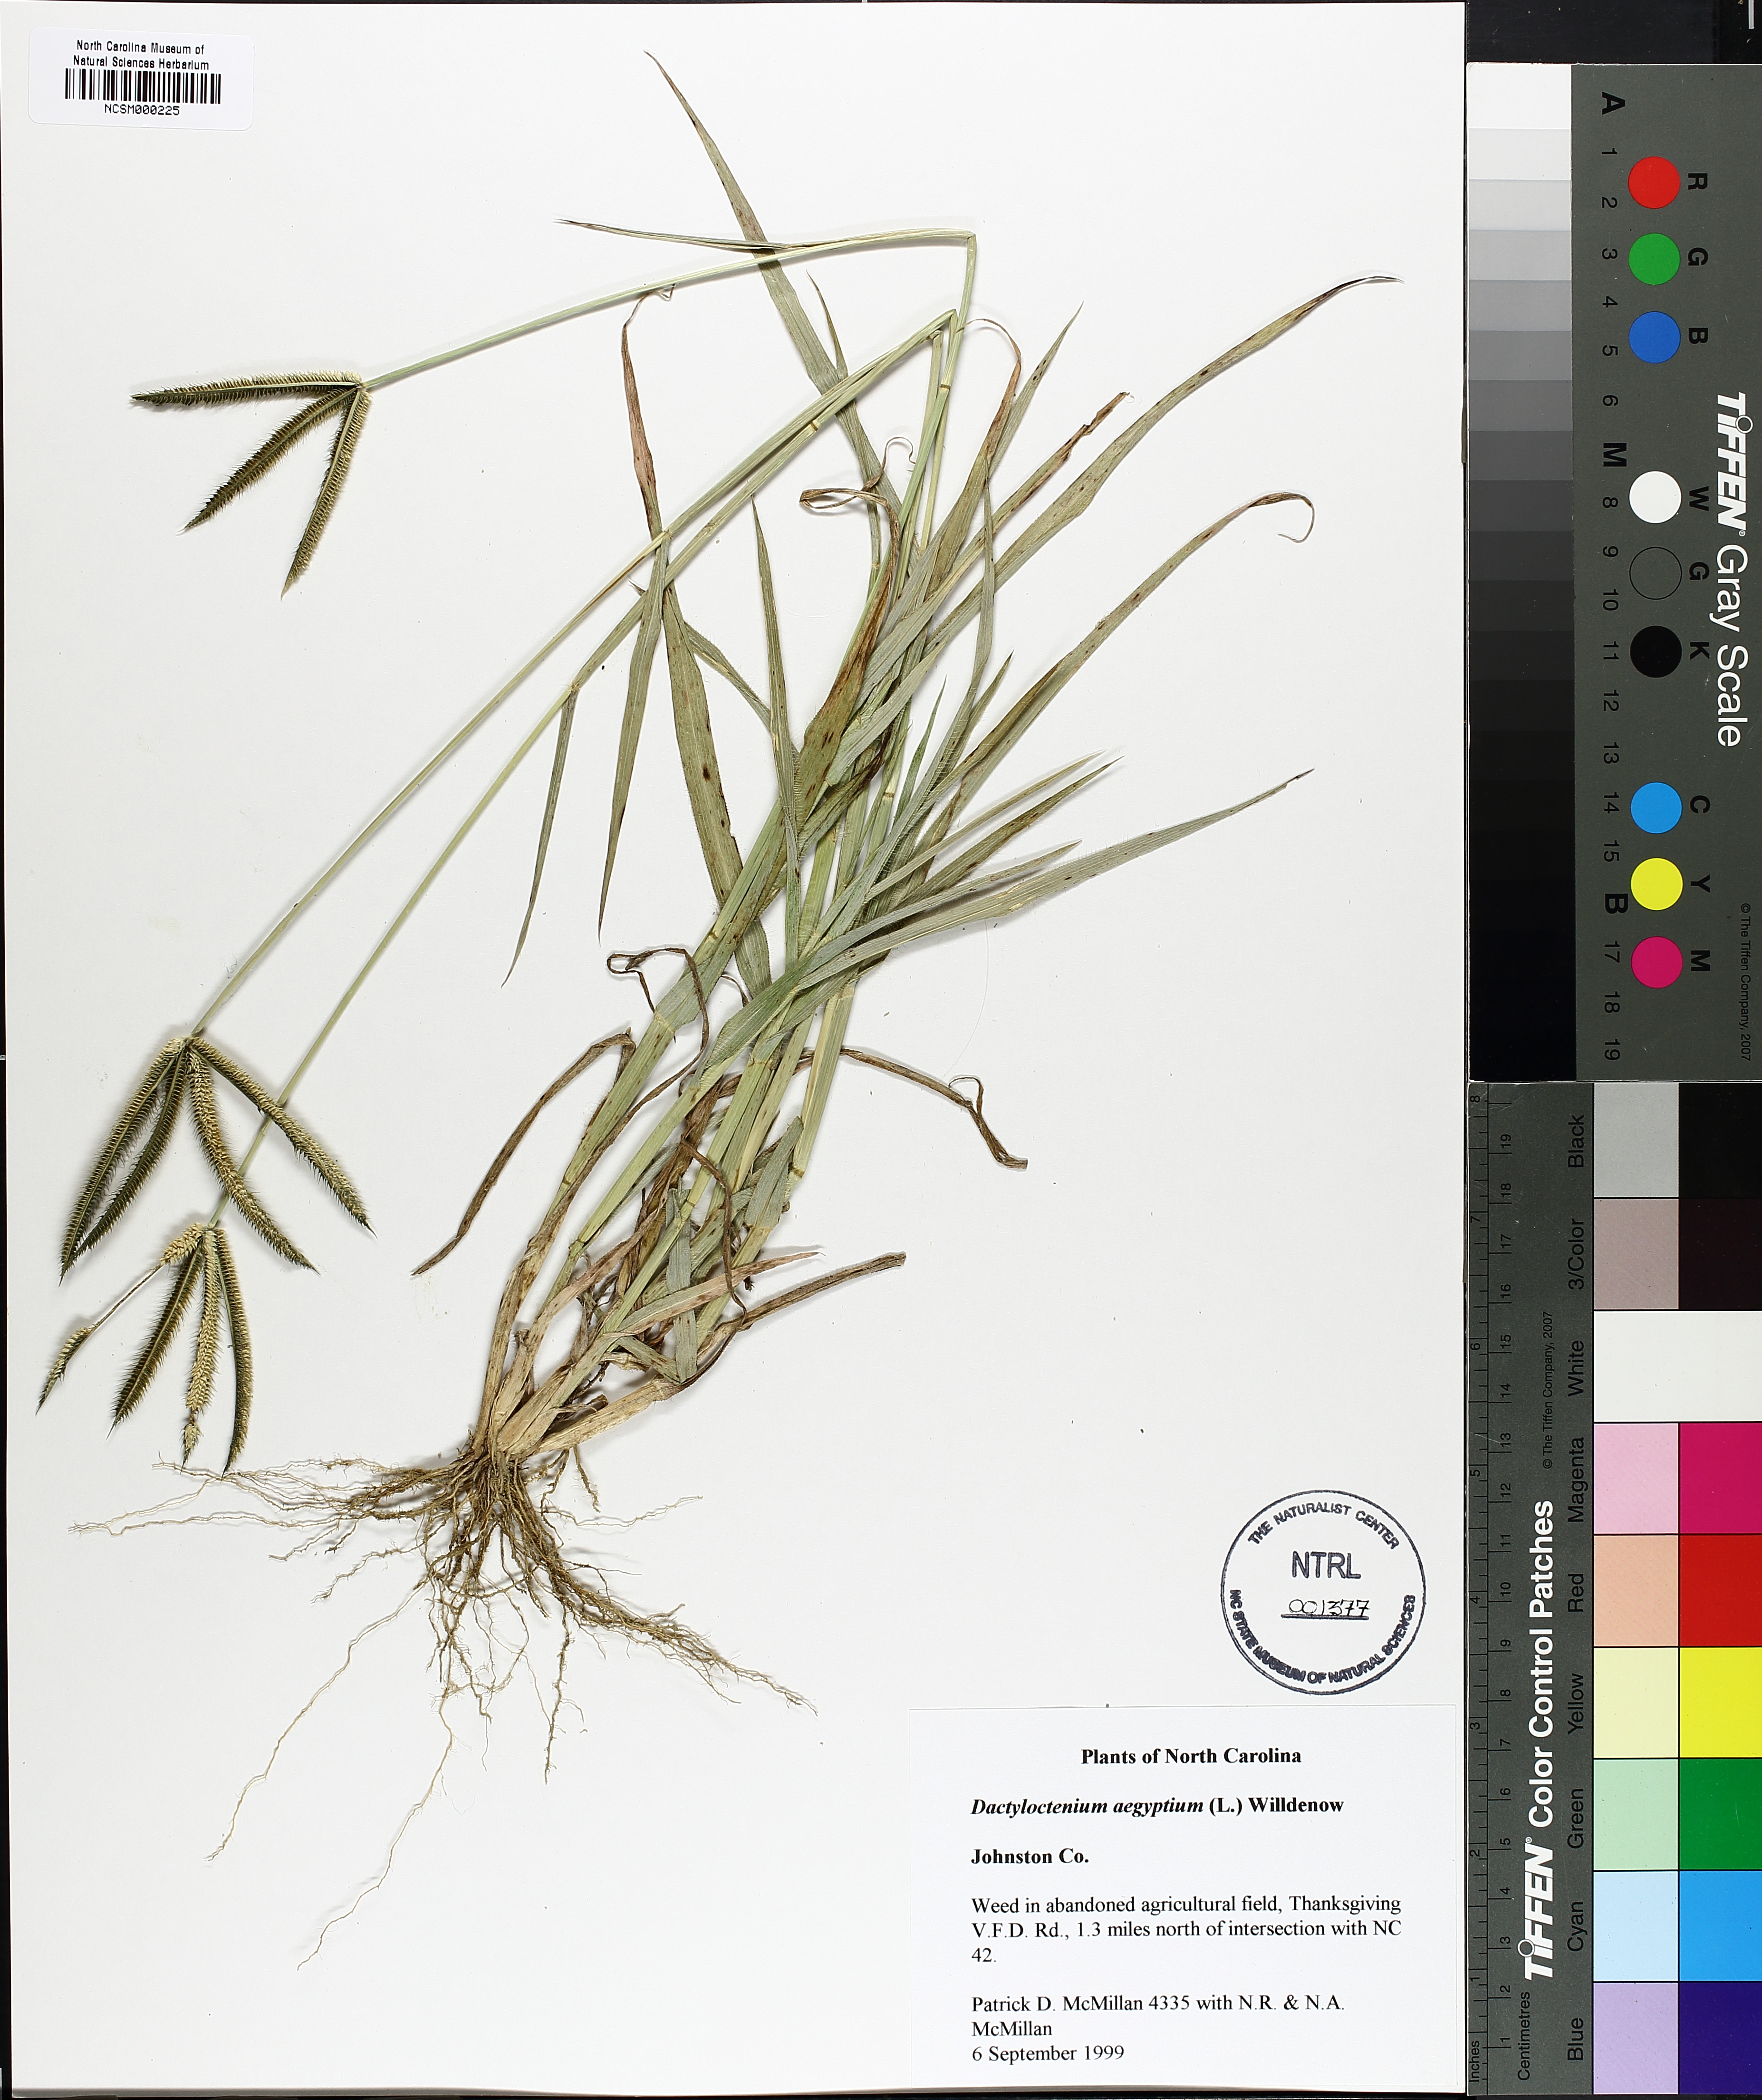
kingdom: Plantae
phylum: Tracheophyta
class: Liliopsida
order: Poales
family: Poaceae
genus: Dactyloctenium
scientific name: Dactyloctenium aegyptium
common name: Egyptian grass
